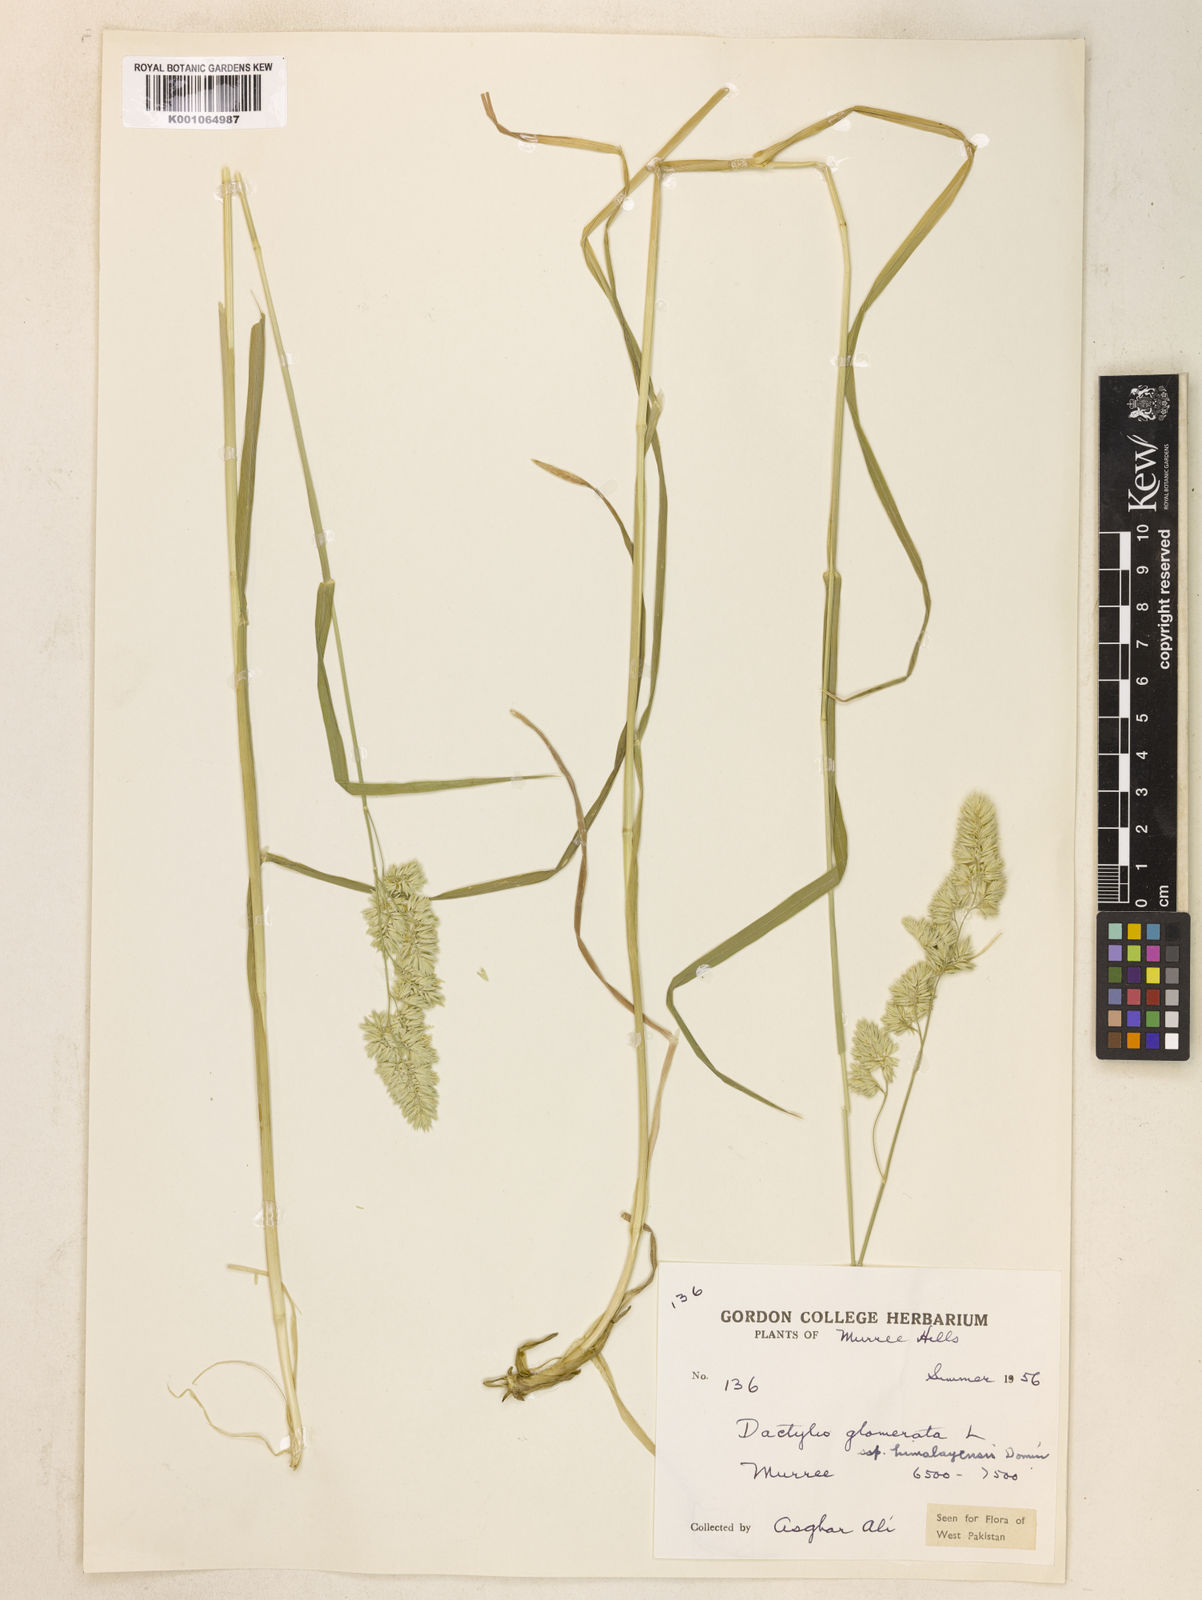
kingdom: Plantae
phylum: Tracheophyta
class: Liliopsida
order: Poales
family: Poaceae
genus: Dactylis
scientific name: Dactylis glomerata
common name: Orchardgrass
